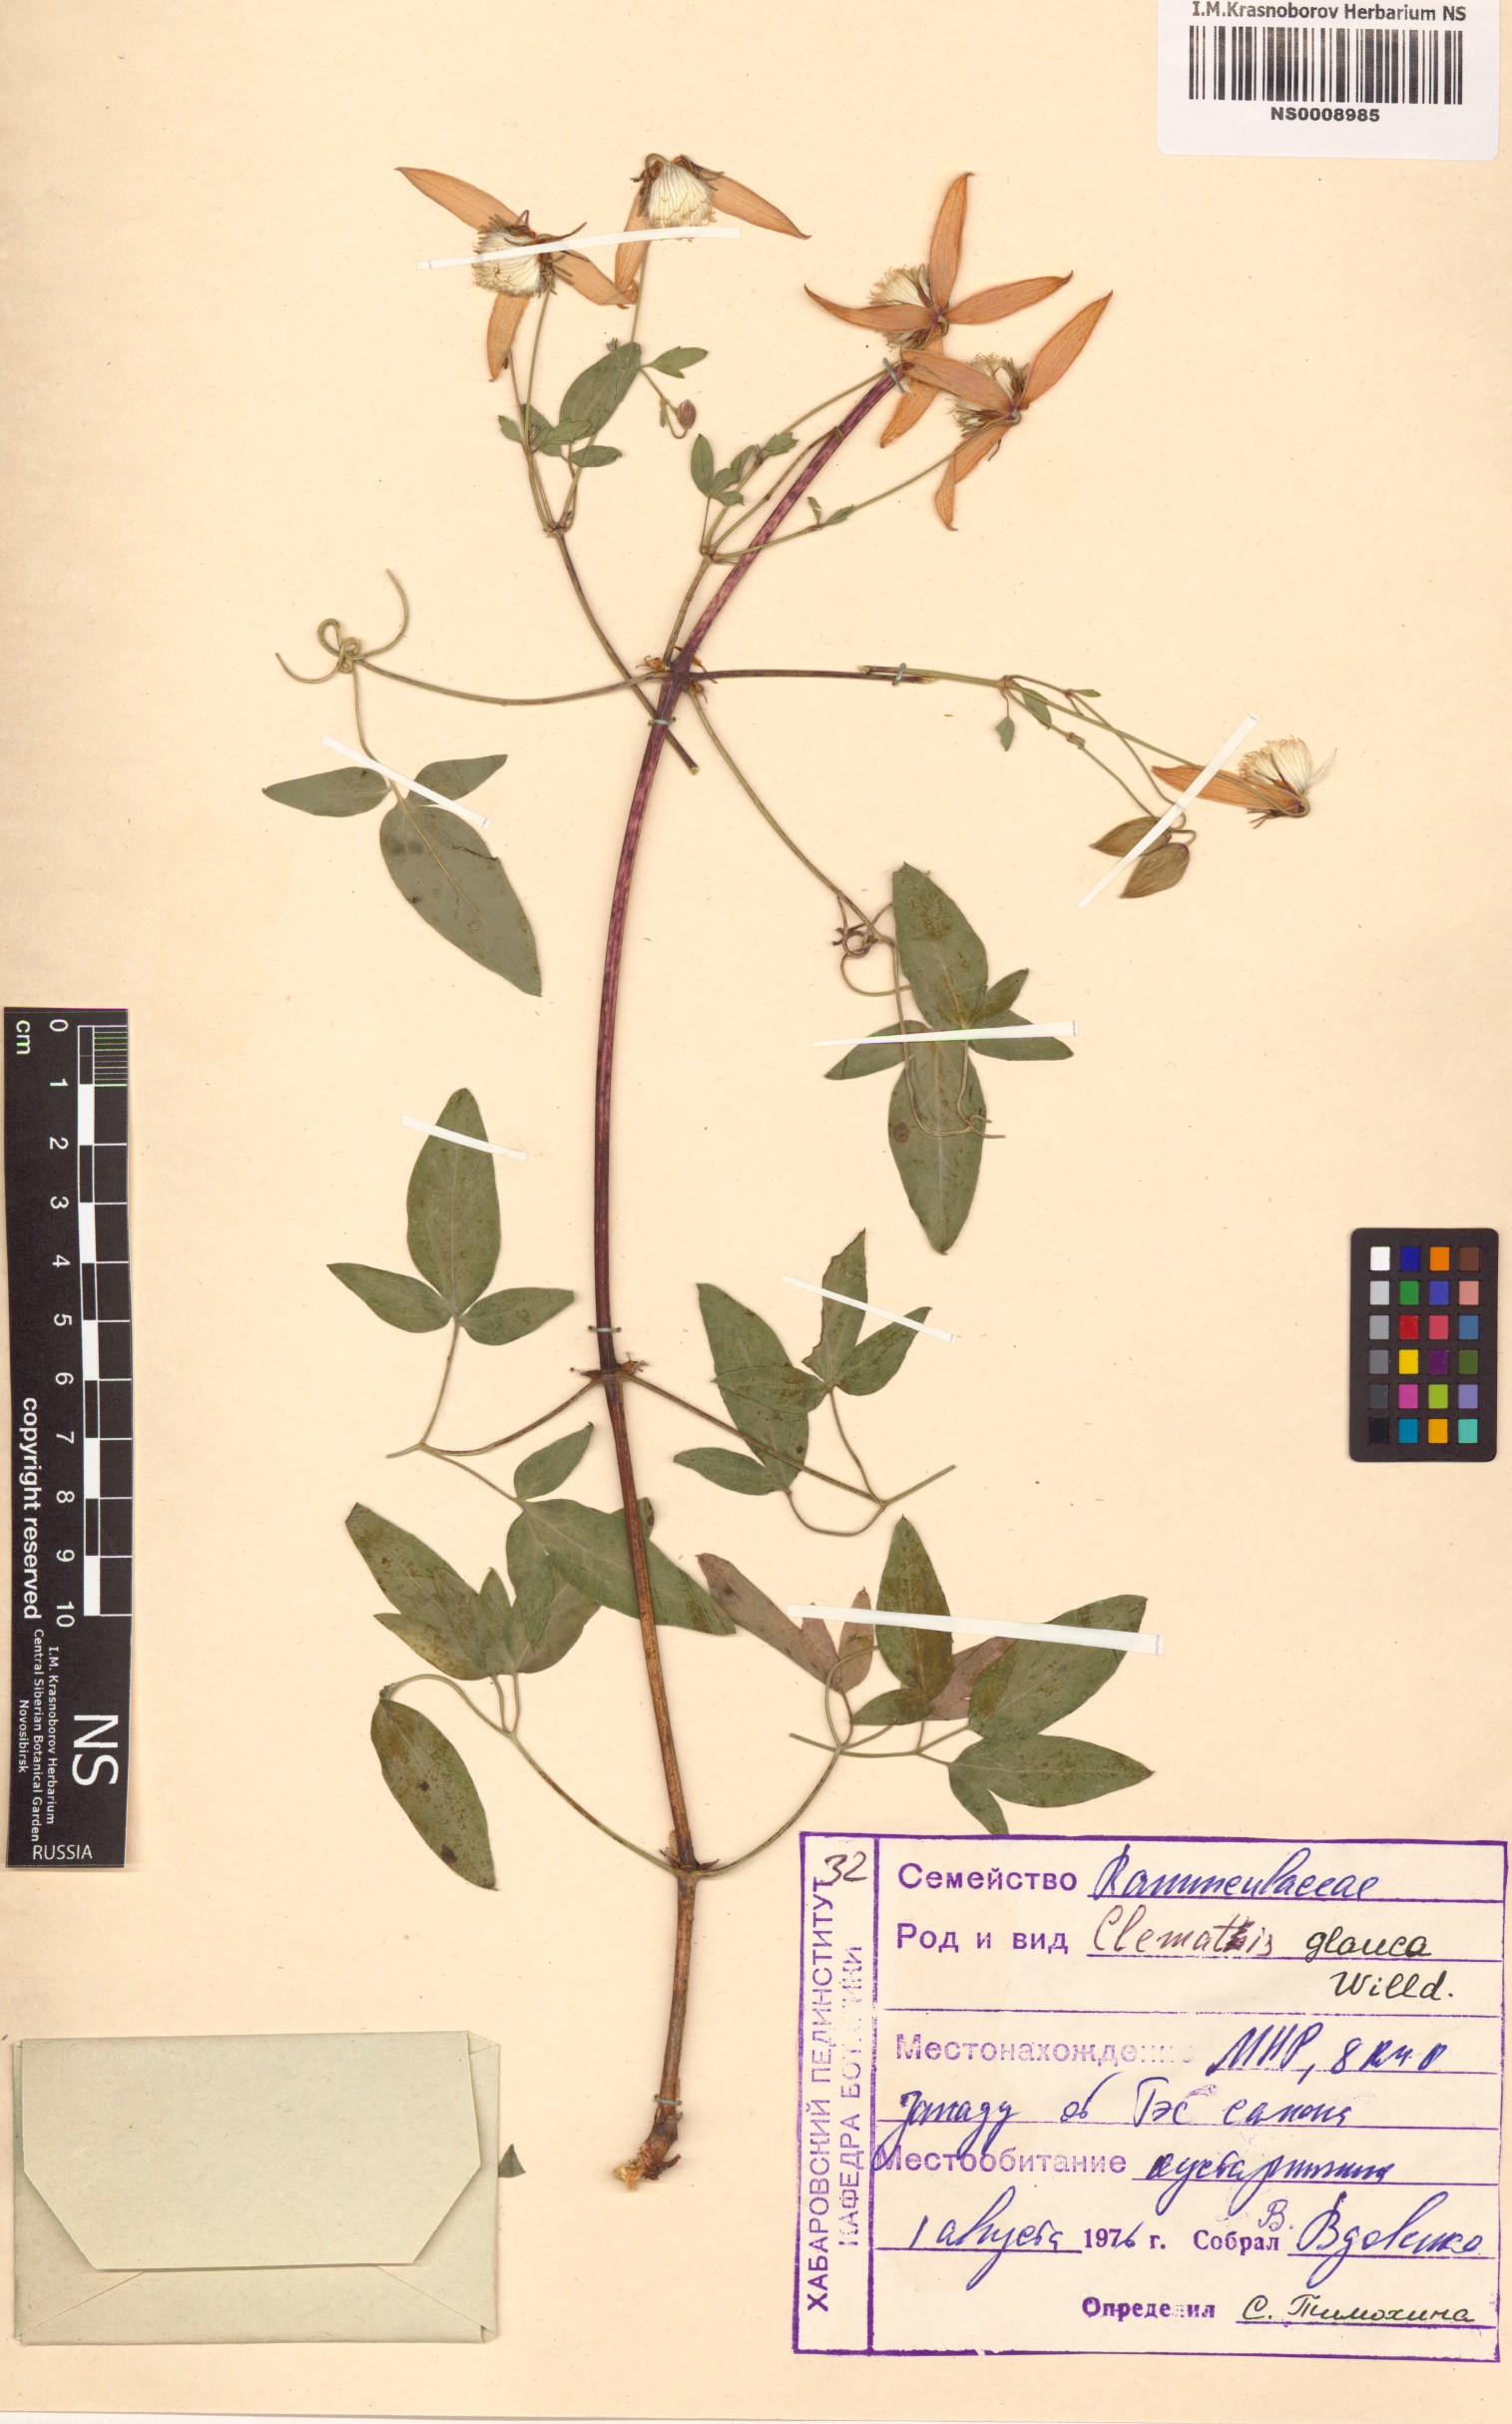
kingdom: Plantae
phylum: Tracheophyta
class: Magnoliopsida
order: Ranunculales
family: Ranunculaceae
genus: Clematis
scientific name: Clematis glauca
